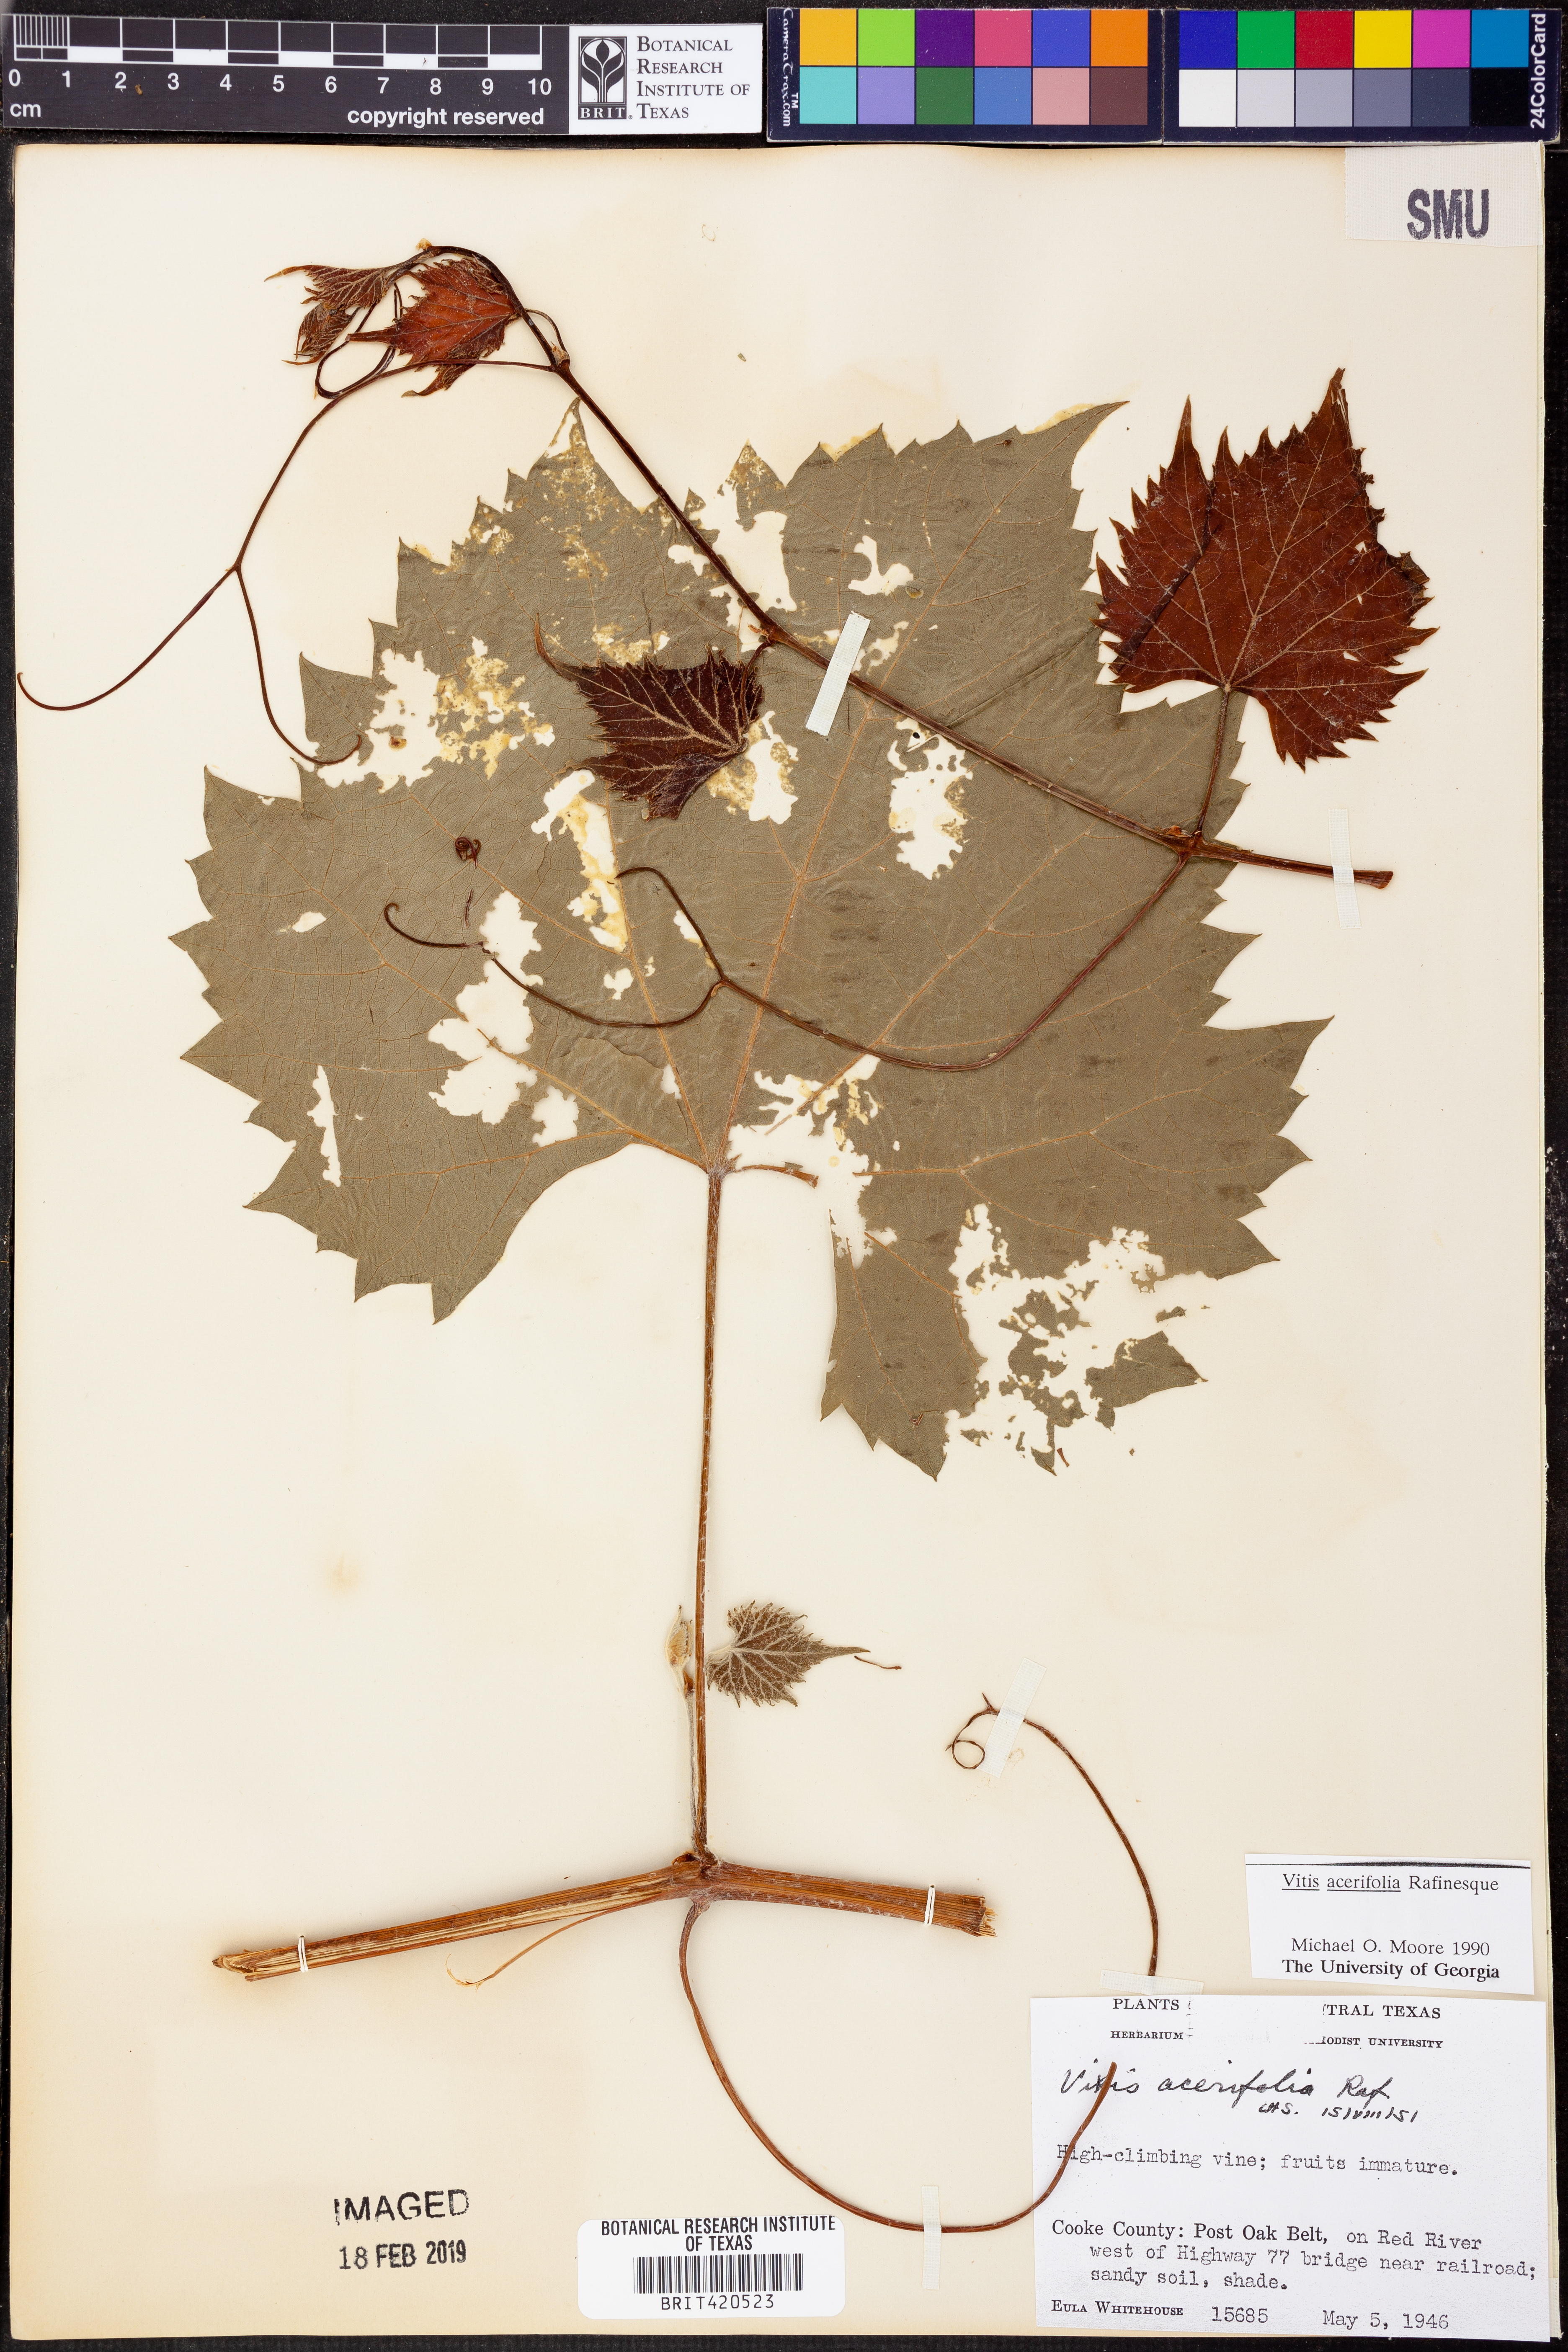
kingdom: Plantae
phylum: Tracheophyta
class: Magnoliopsida
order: Vitales
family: Vitaceae
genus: Vitis
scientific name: Vitis acerifolia
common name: Bush grape
